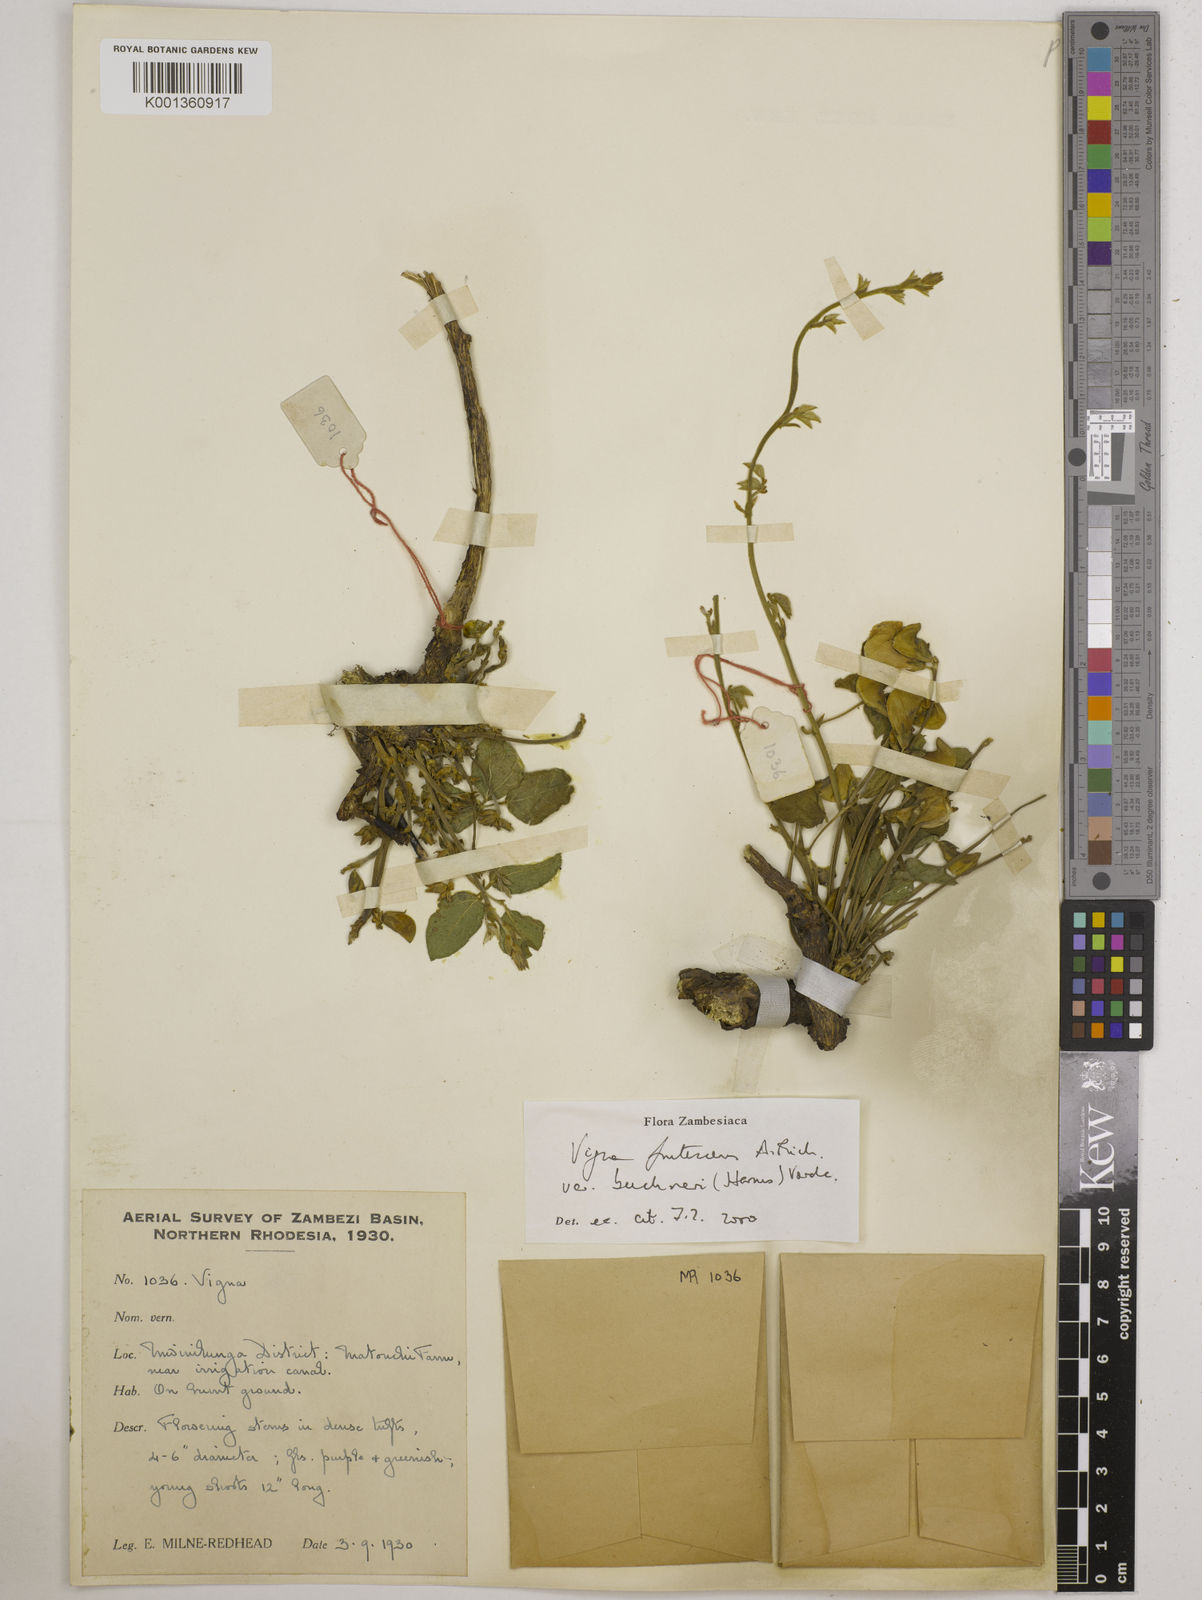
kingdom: Plantae
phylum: Tracheophyta
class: Magnoliopsida
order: Fabales
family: Fabaceae
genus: Vigna
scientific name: Vigna frutescens
